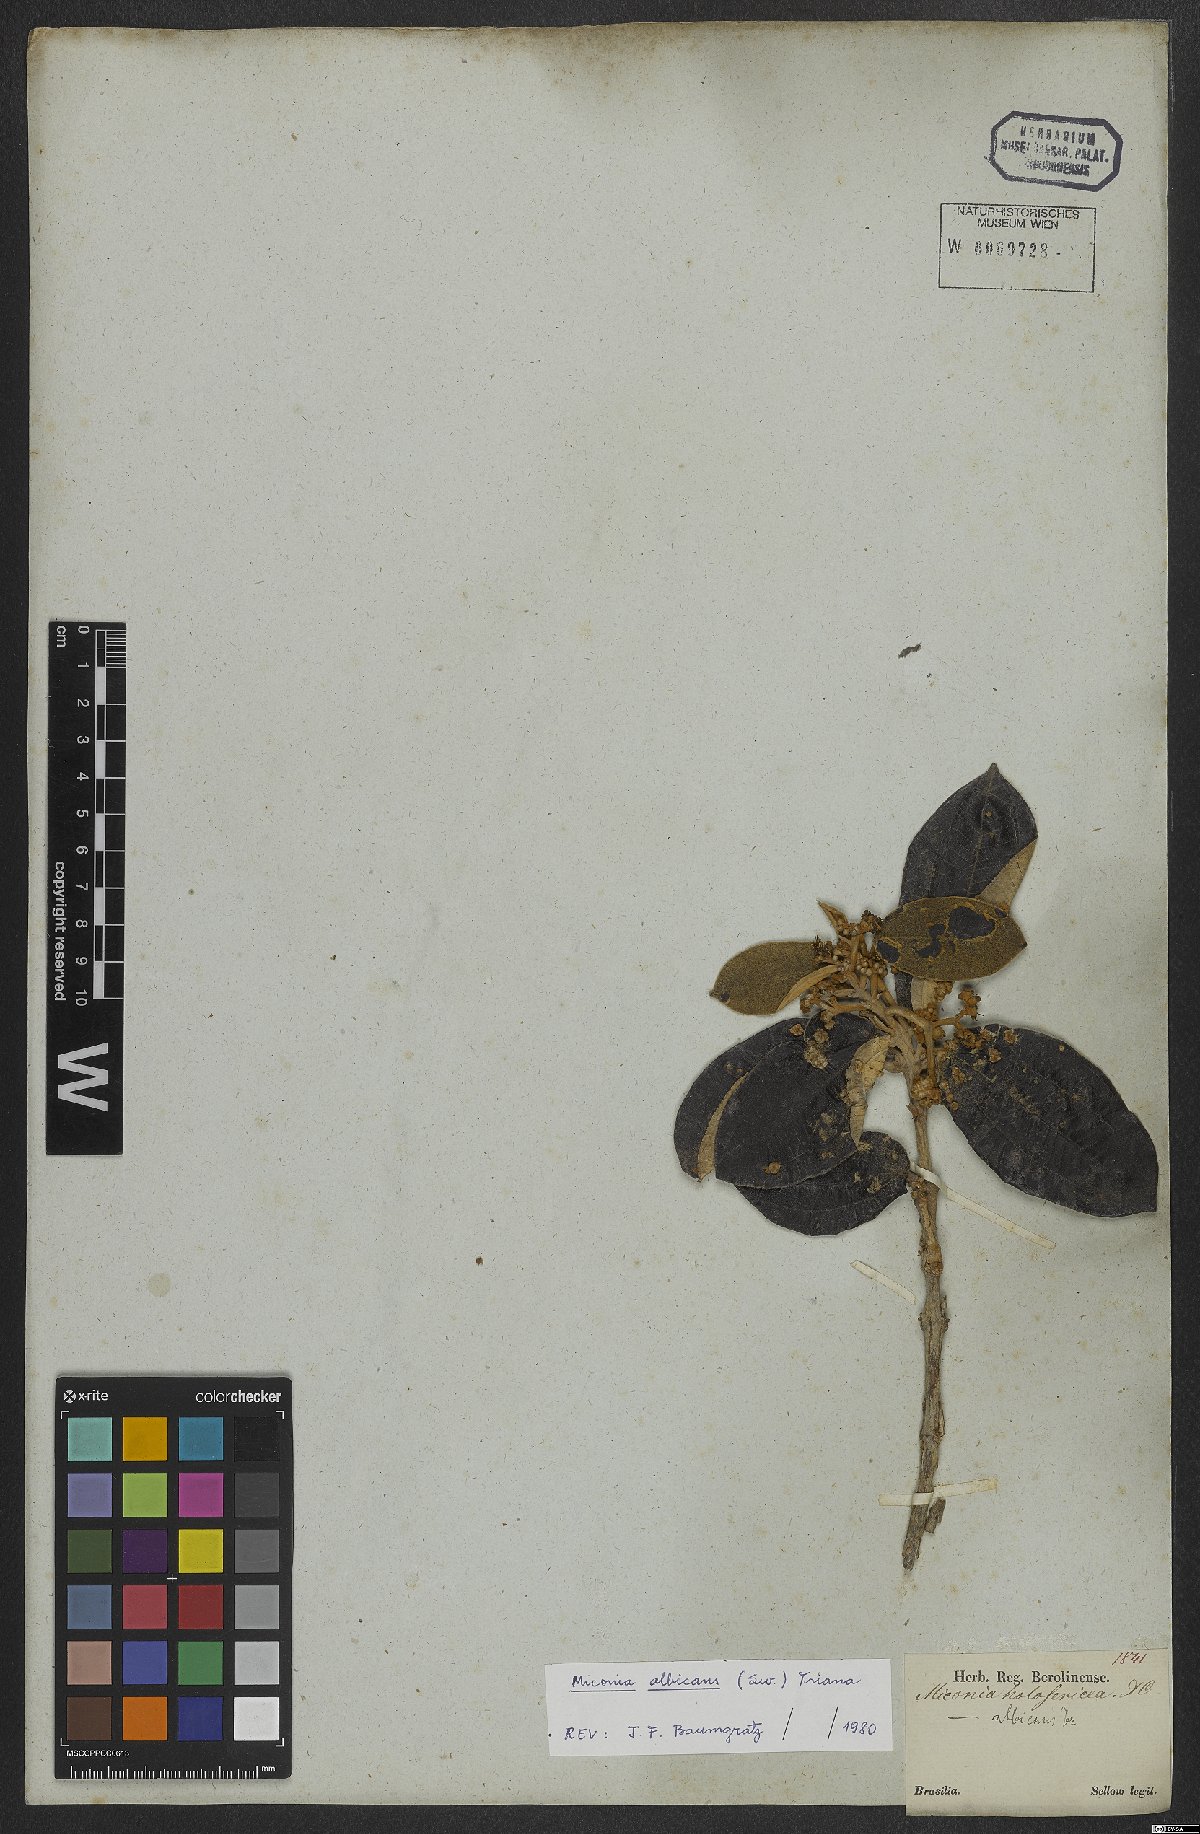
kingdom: Plantae
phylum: Tracheophyta
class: Magnoliopsida
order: Myrtales
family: Melastomataceae
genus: Miconia
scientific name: Miconia albicans
